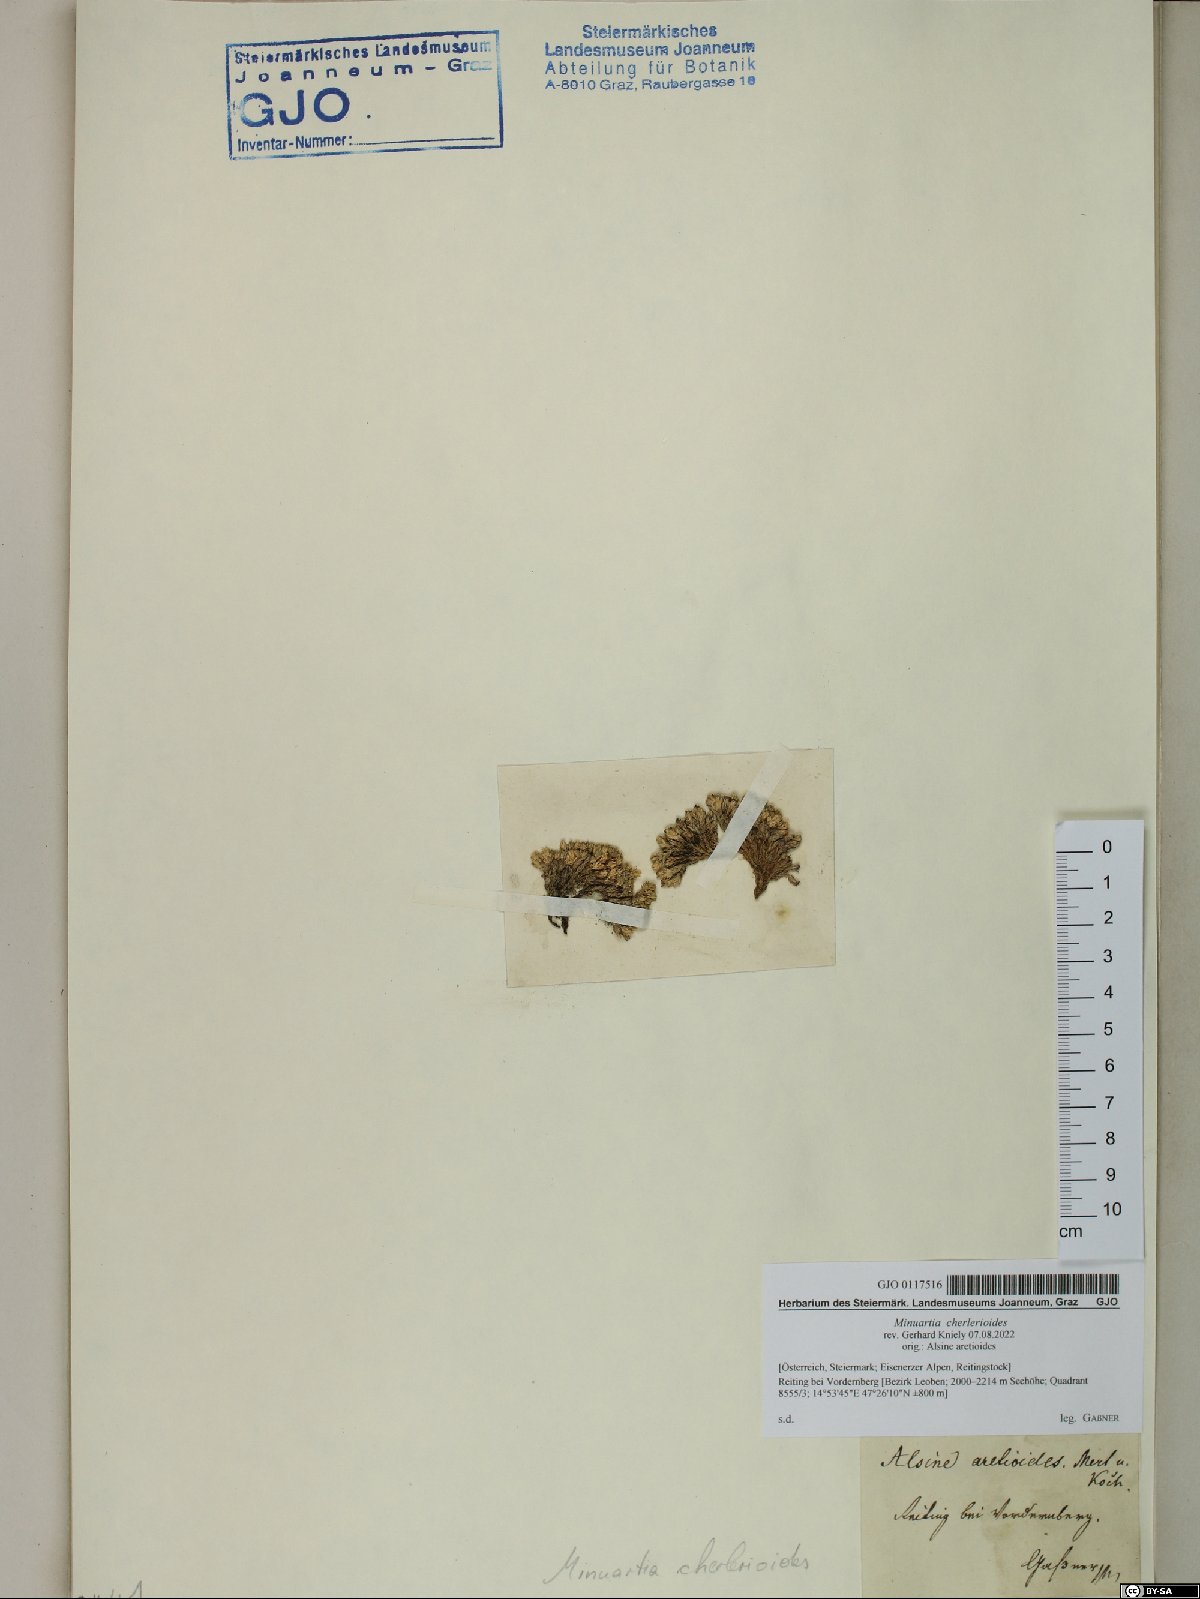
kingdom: Plantae
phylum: Tracheophyta
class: Magnoliopsida
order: Caryophyllales
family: Caryophyllaceae
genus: Facchinia
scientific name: Facchinia cherlerioides
